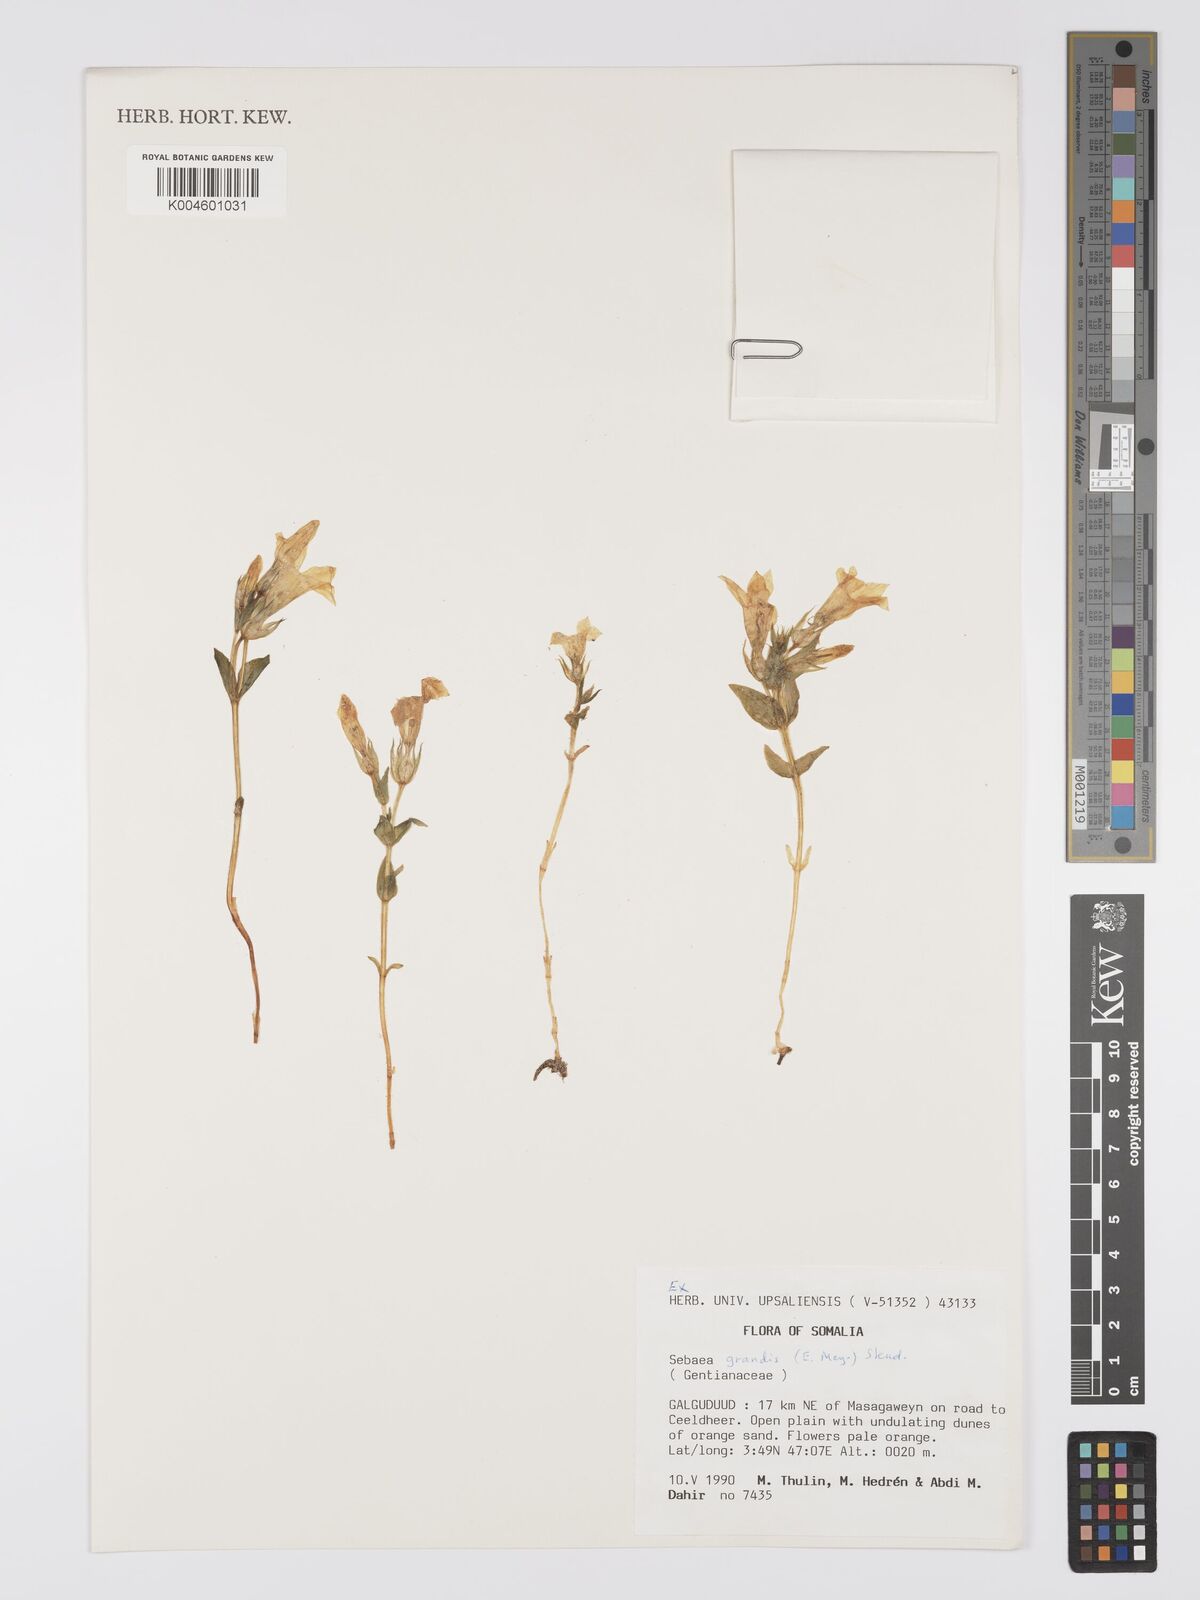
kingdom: Plantae
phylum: Tracheophyta
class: Magnoliopsida
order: Gentianales
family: Gentianaceae
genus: Exochaenium
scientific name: Exochaenium grande
